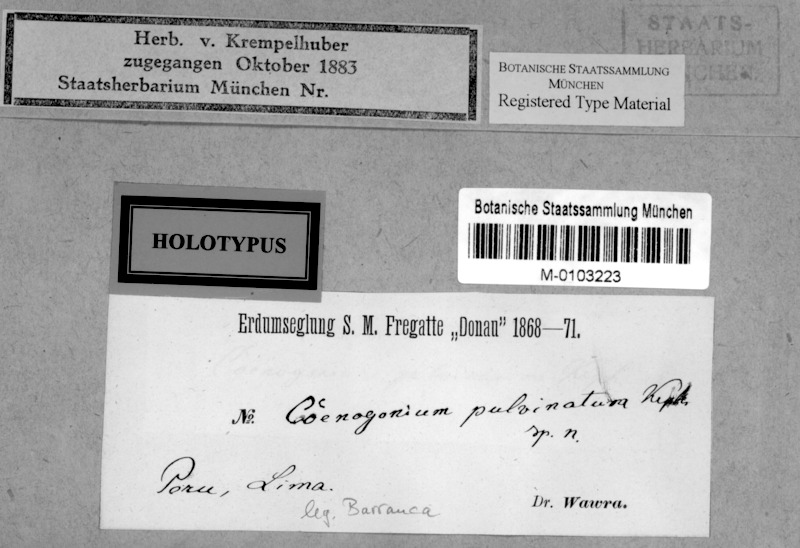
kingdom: Fungi
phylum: Ascomycota
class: Lecanoromycetes
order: Ostropales
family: Coenogoniaceae
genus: Coenogonium
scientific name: Coenogonium
